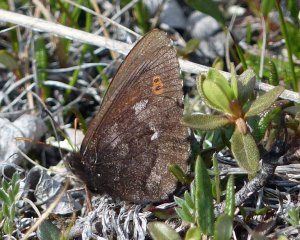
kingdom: Animalia
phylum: Arthropoda
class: Insecta
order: Lepidoptera
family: Nymphalidae
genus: Erebia
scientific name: Erebia disa
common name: Disa Alpine
